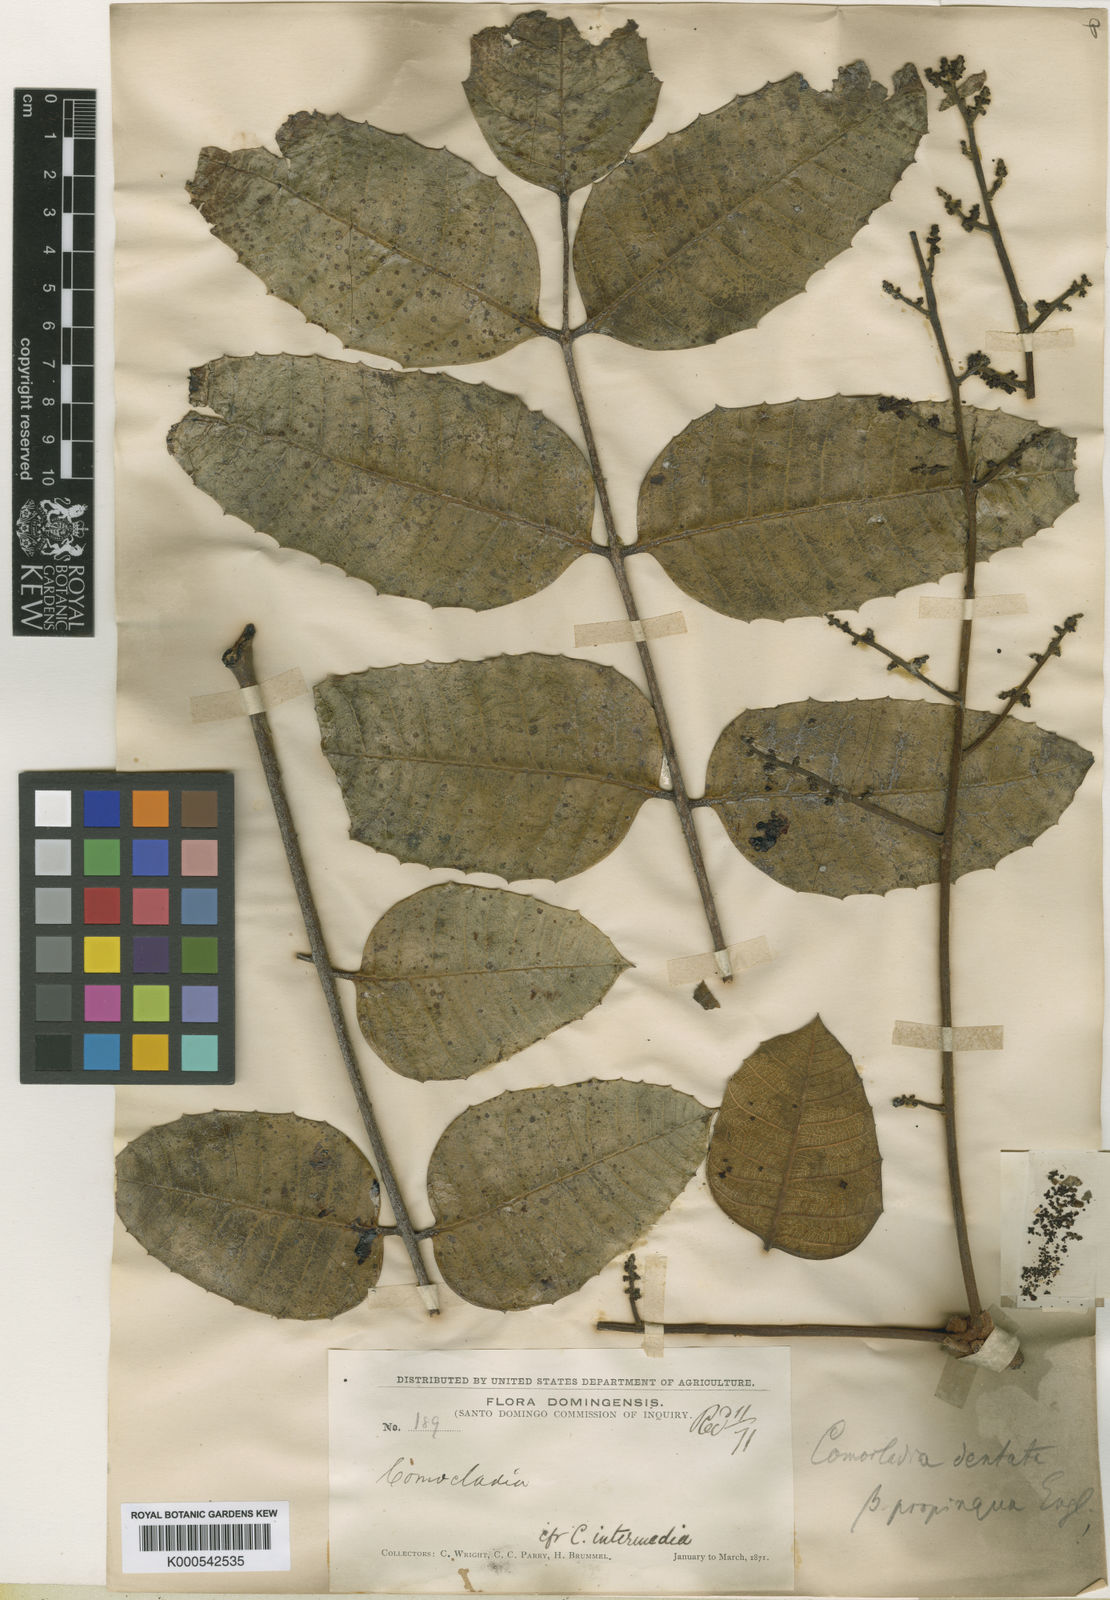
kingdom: Plantae
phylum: Tracheophyta
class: Magnoliopsida
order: Sapindales
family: Anacardiaceae
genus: Comocladia
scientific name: Comocladia dentata
